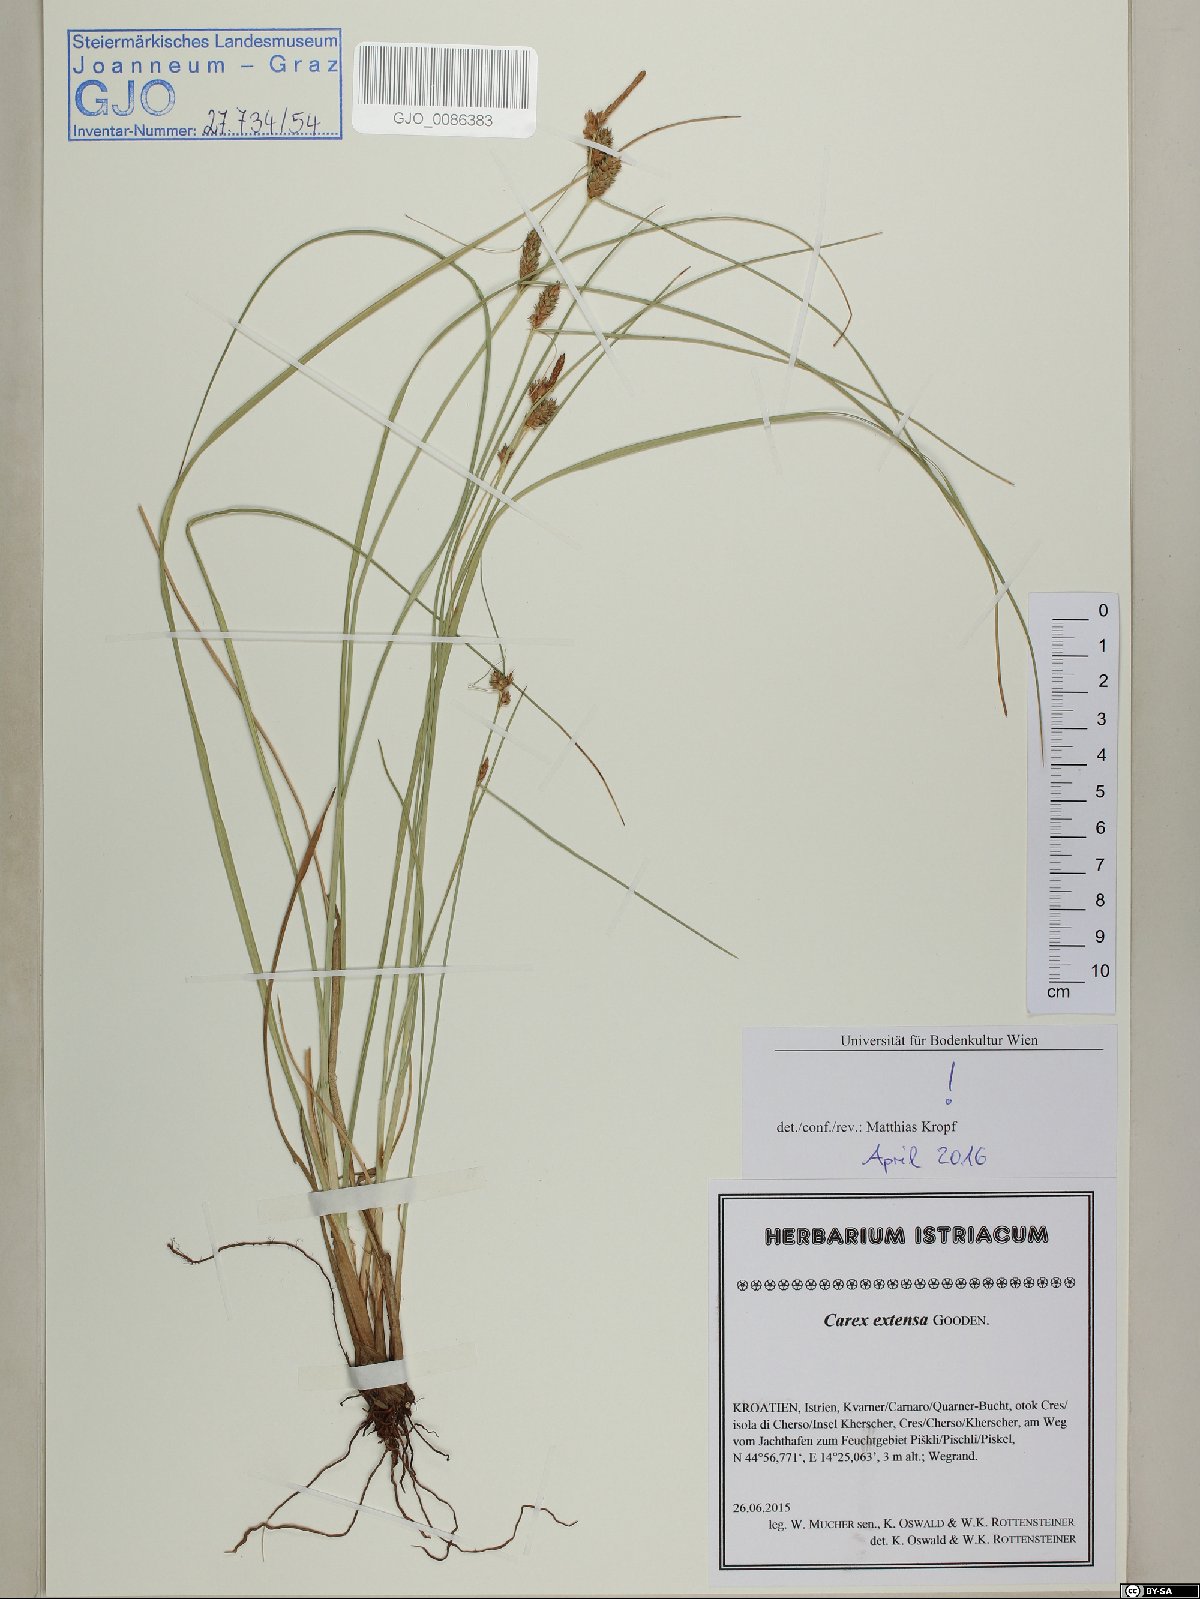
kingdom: Plantae
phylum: Tracheophyta
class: Liliopsida
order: Poales
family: Cyperaceae
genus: Carex
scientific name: Carex extensa
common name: Long-bracted sedge
